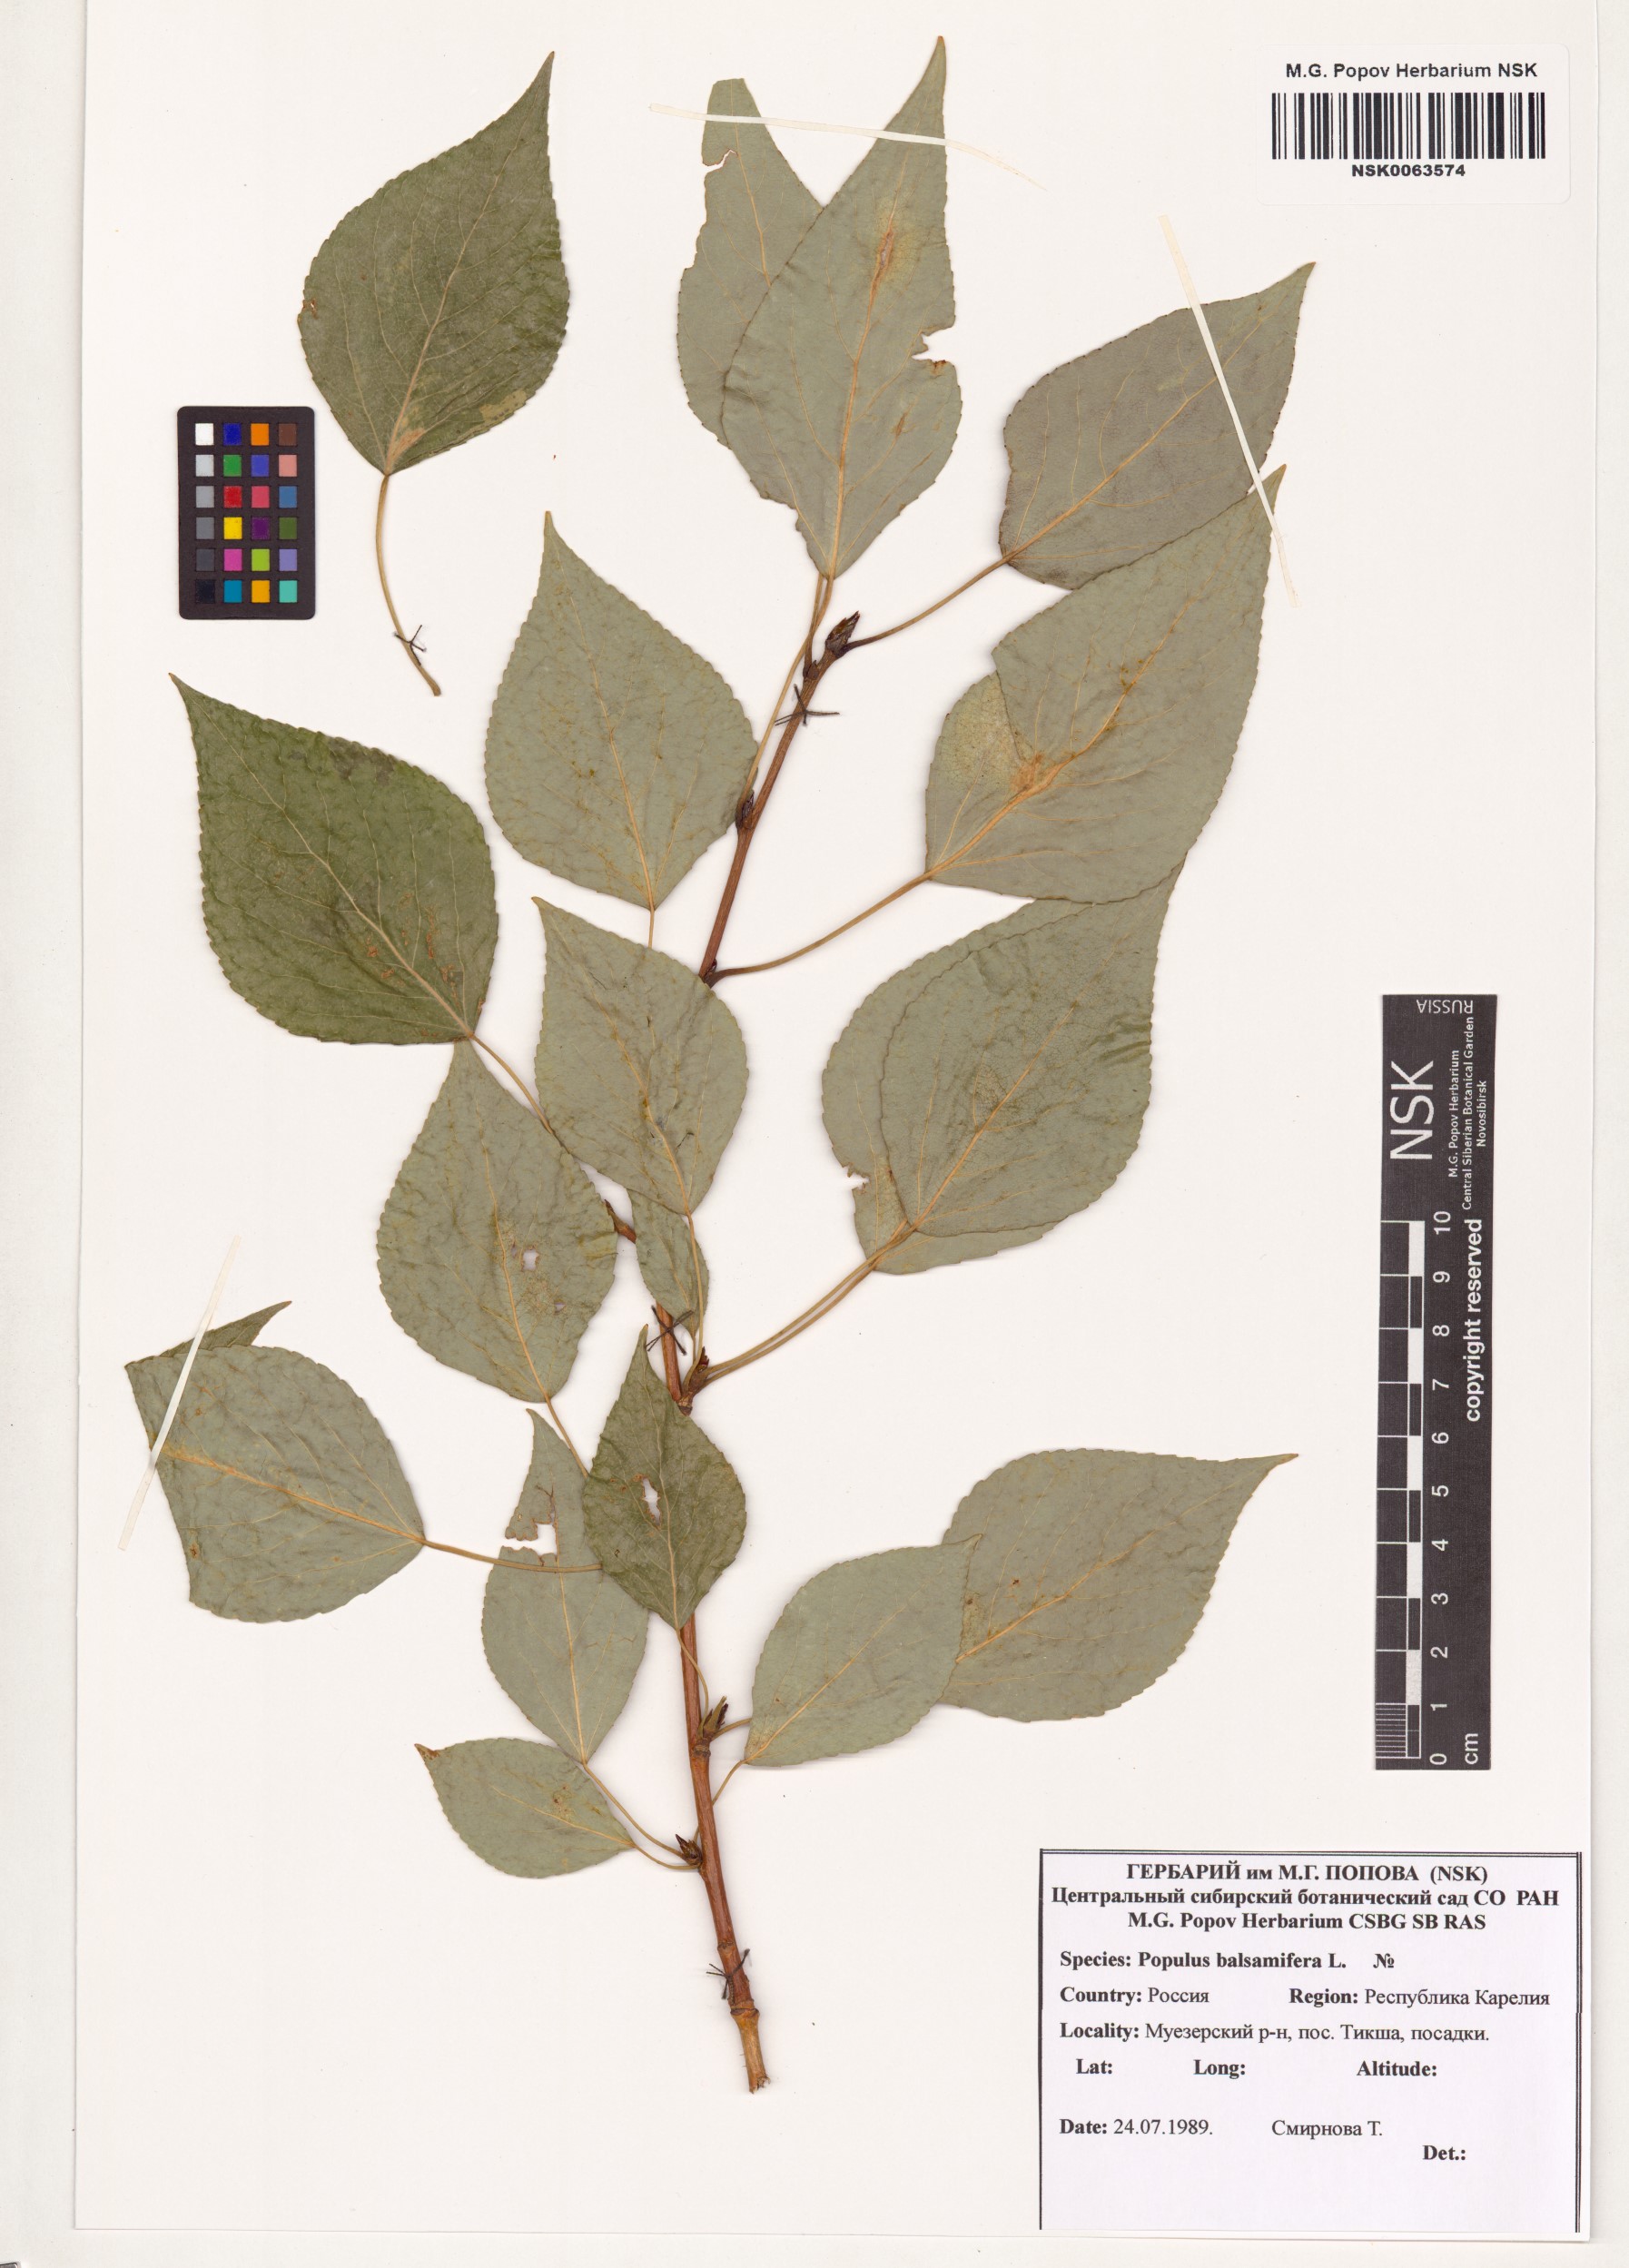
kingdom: Plantae
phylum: Tracheophyta
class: Magnoliopsida
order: Malpighiales
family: Salicaceae
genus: Populus
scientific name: Populus balsamifera
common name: Balsam poplar
